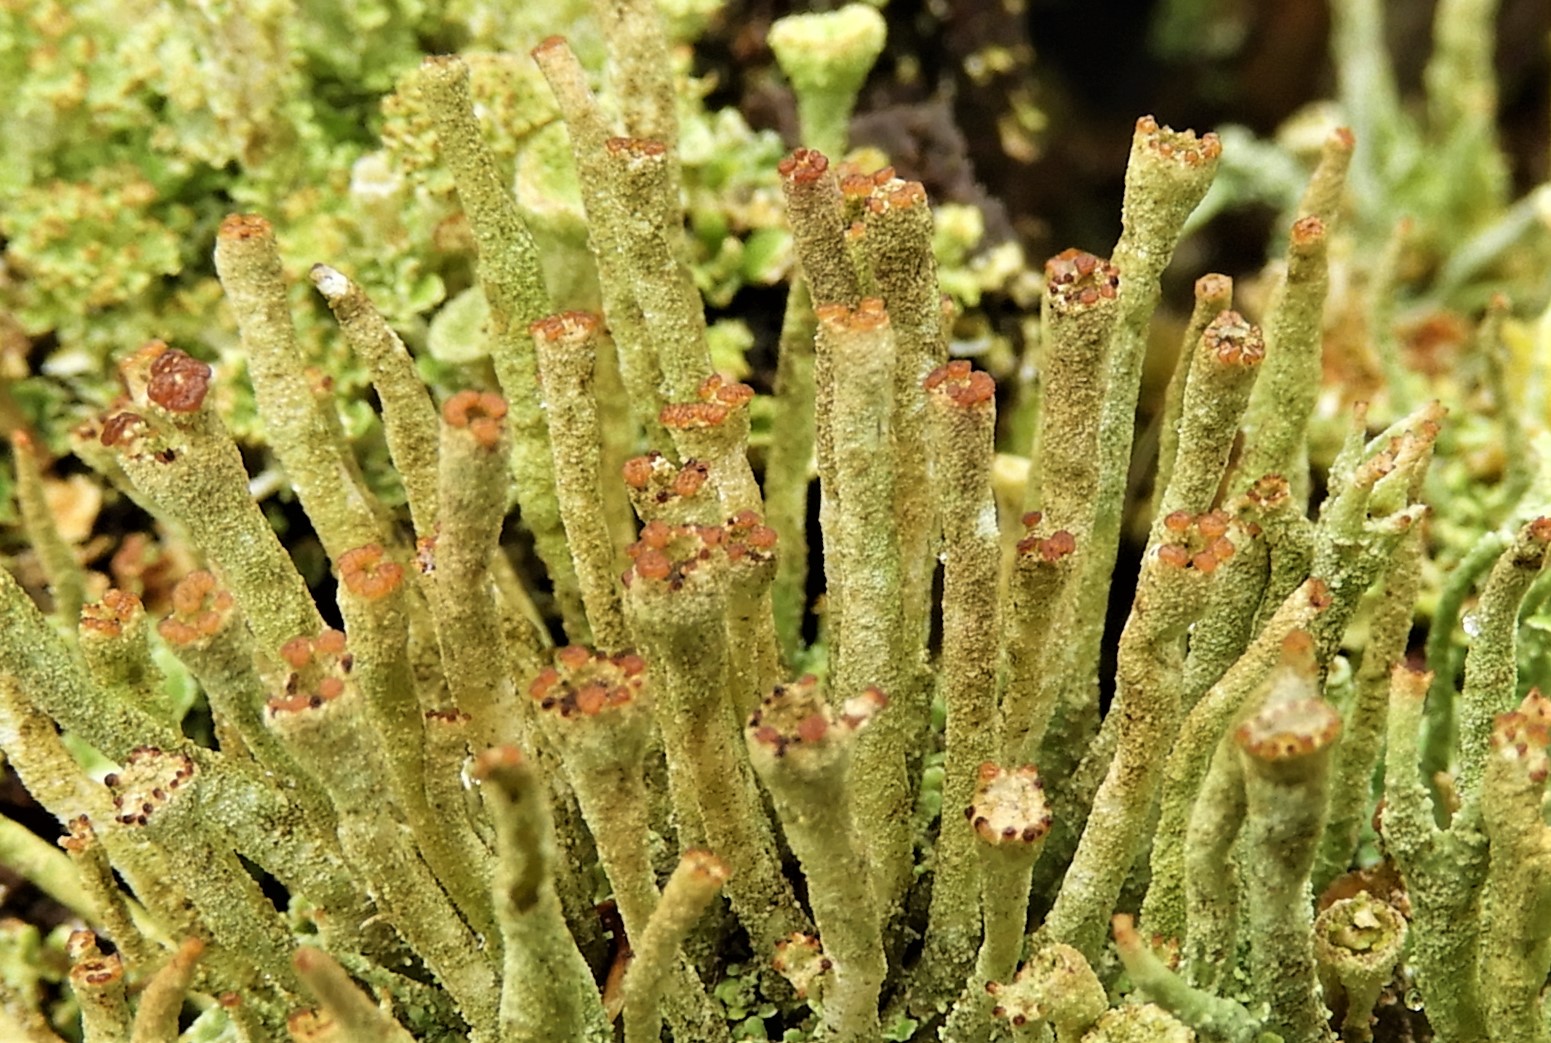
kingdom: Fungi
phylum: Ascomycota
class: Lecanoromycetes
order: Lecanorales
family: Cladoniaceae
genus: Cladonia
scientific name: Cladonia ochrochlora
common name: stød-bægerlav
